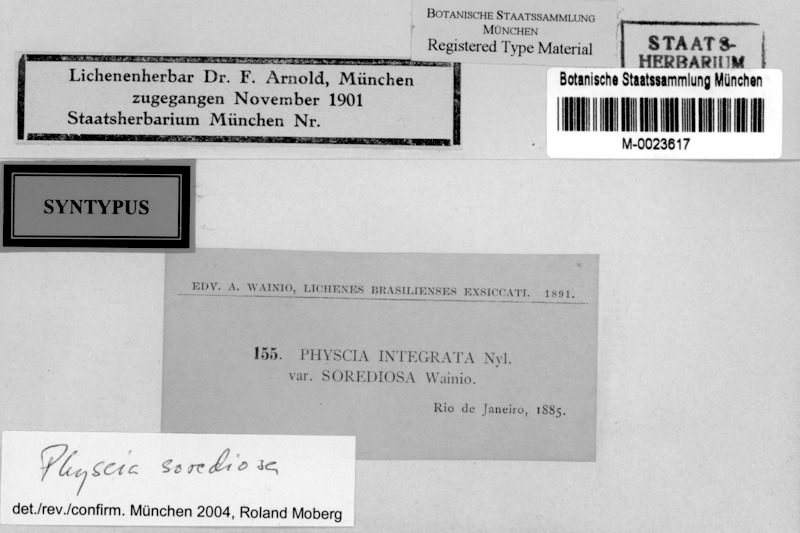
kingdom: Fungi
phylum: Ascomycota
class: Lecanoromycetes
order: Caliciales
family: Physciaceae
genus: Physcia
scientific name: Physcia sorediosa
